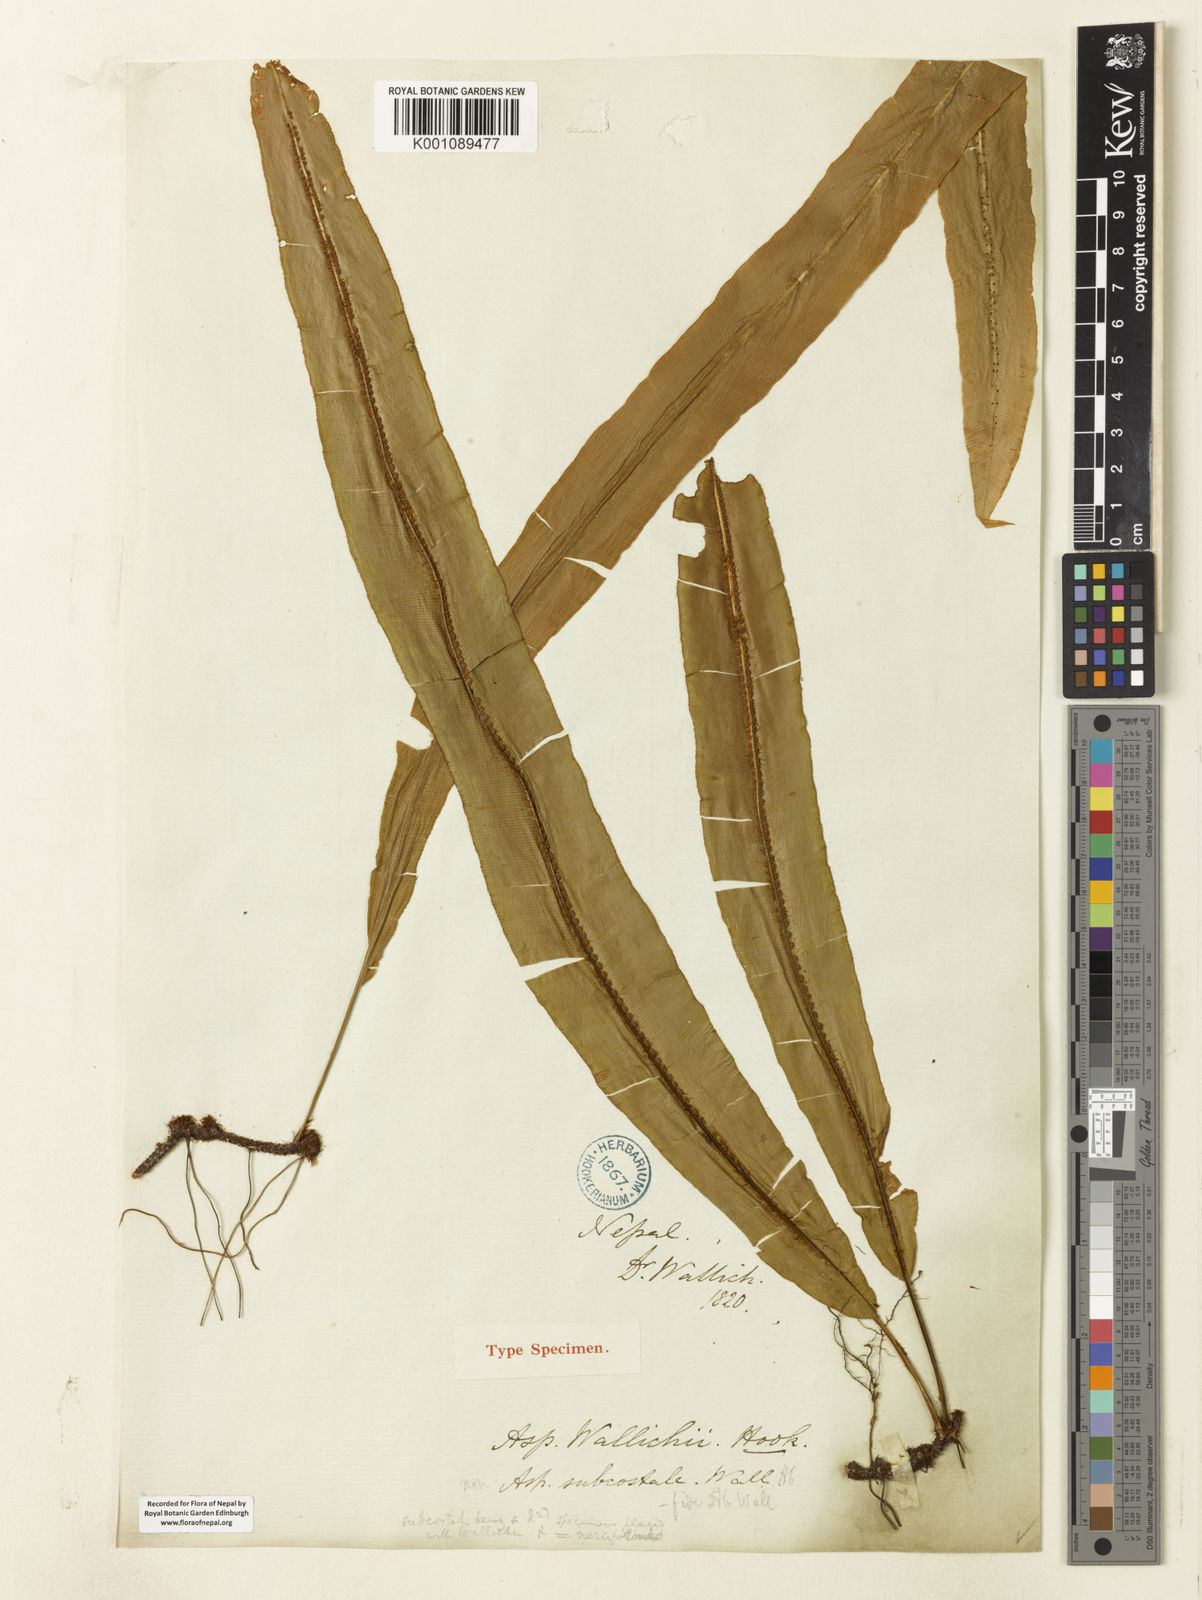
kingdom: Plantae
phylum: Tracheophyta
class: Polypodiopsida
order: Polypodiales
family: Oleandraceae
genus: Oleandra
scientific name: Oleandra wallichii
